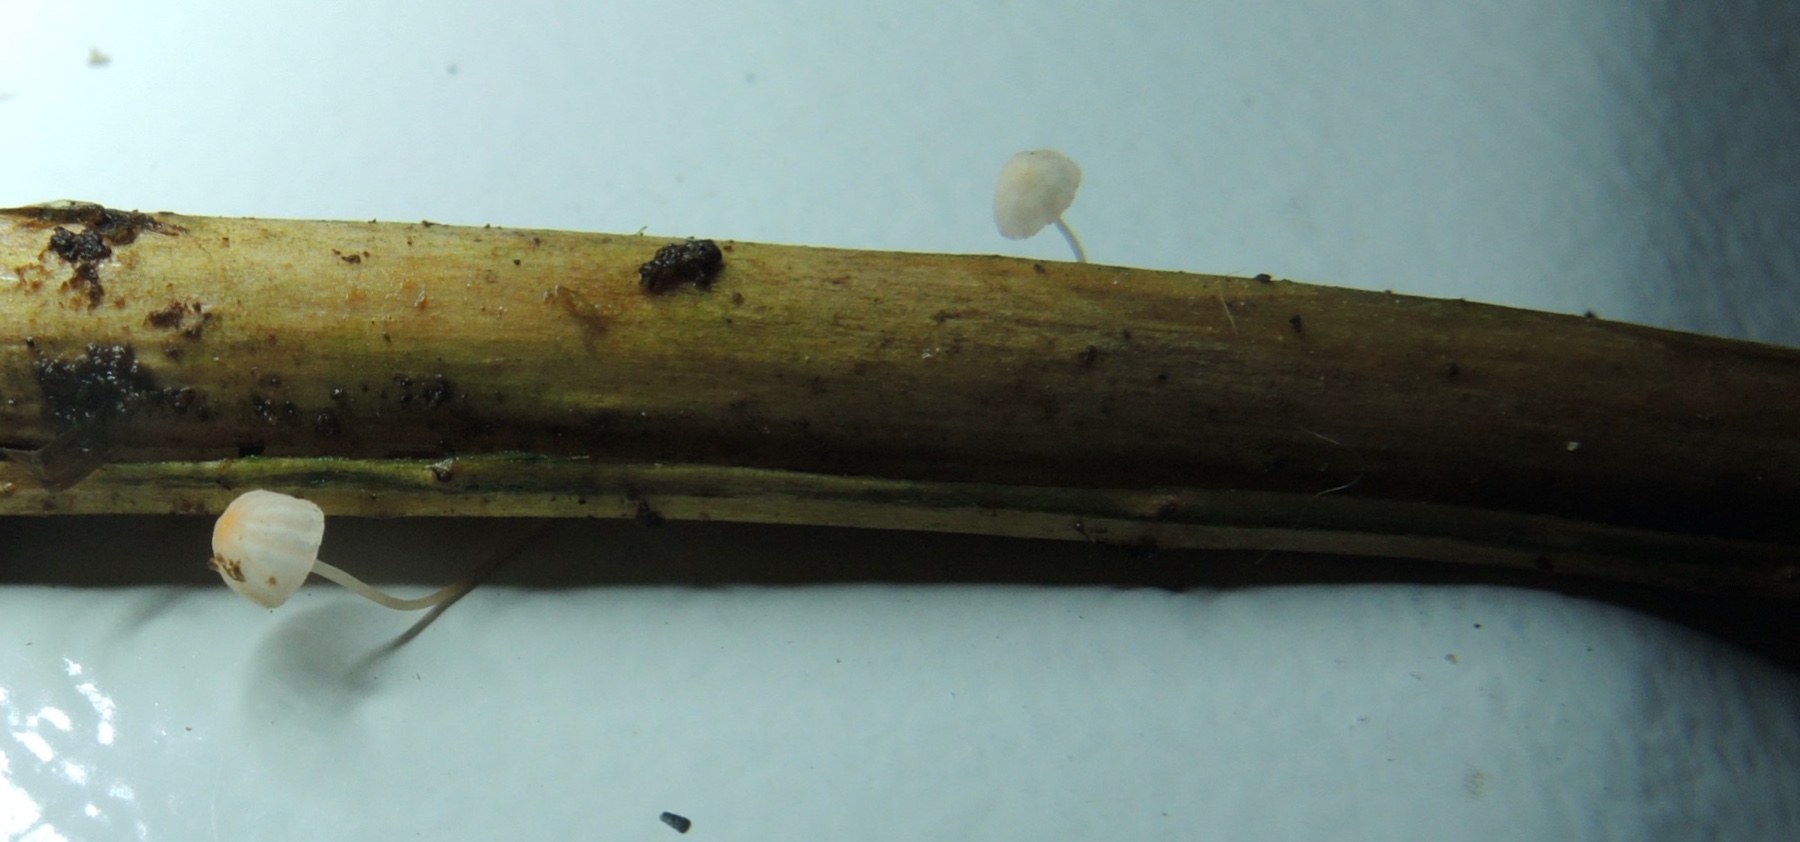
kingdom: Fungi
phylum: Basidiomycota
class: Agaricomycetes
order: Agaricales
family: Mycenaceae
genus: Mycena
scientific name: Mycena pterigena
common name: bregne-huesvamp
